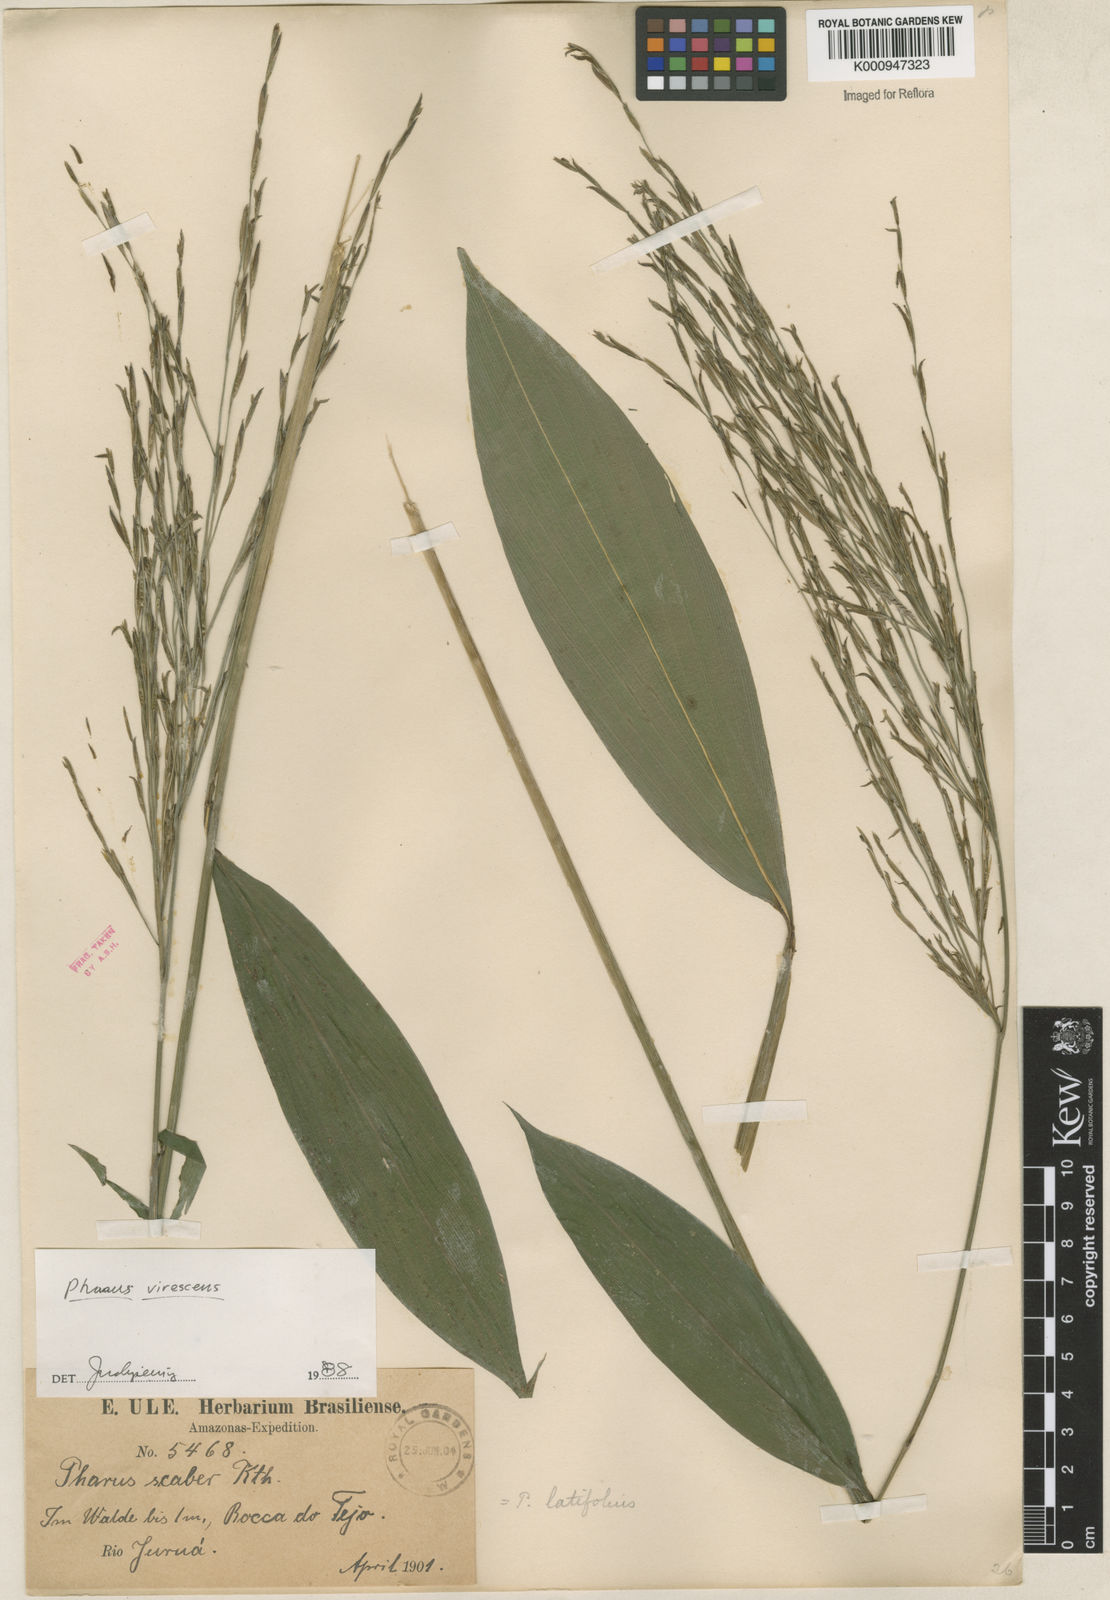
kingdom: Plantae
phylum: Tracheophyta
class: Liliopsida
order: Poales
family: Poaceae
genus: Pharus
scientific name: Pharus
